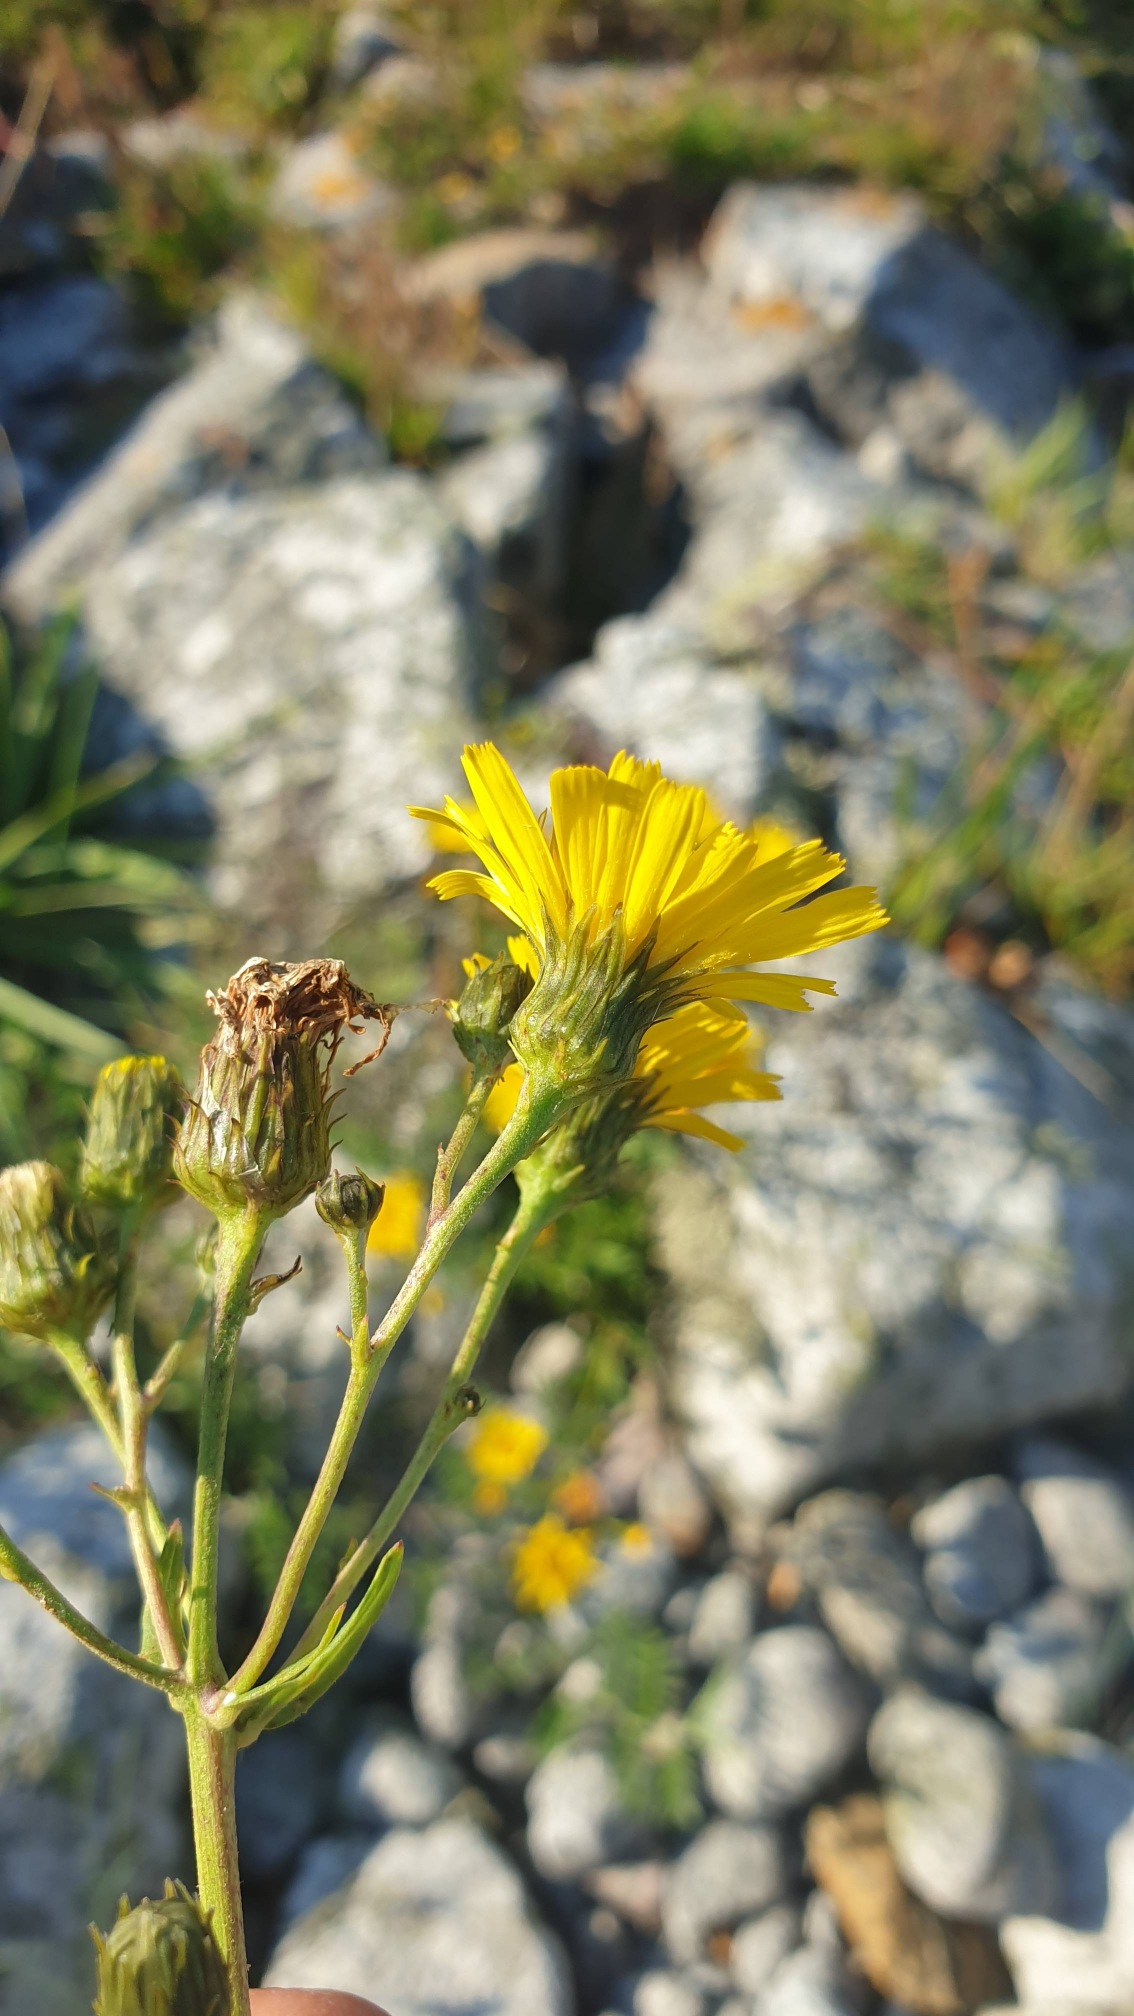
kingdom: Plantae
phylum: Tracheophyta
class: Magnoliopsida
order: Asterales
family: Asteraceae
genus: Hieracium
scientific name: Hieracium umbellatum
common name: Smalbladet høgeurt
